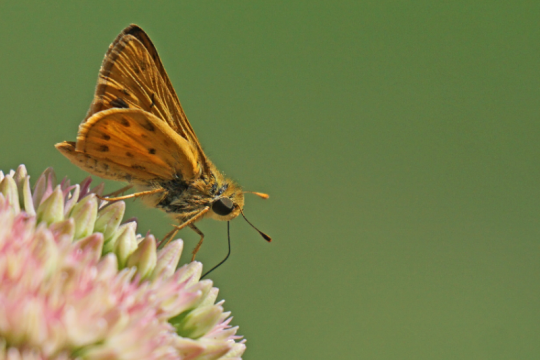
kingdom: Animalia
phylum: Arthropoda
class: Insecta
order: Lepidoptera
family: Hesperiidae
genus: Hylephila
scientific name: Hylephila phyleus
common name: Fiery Skipper
